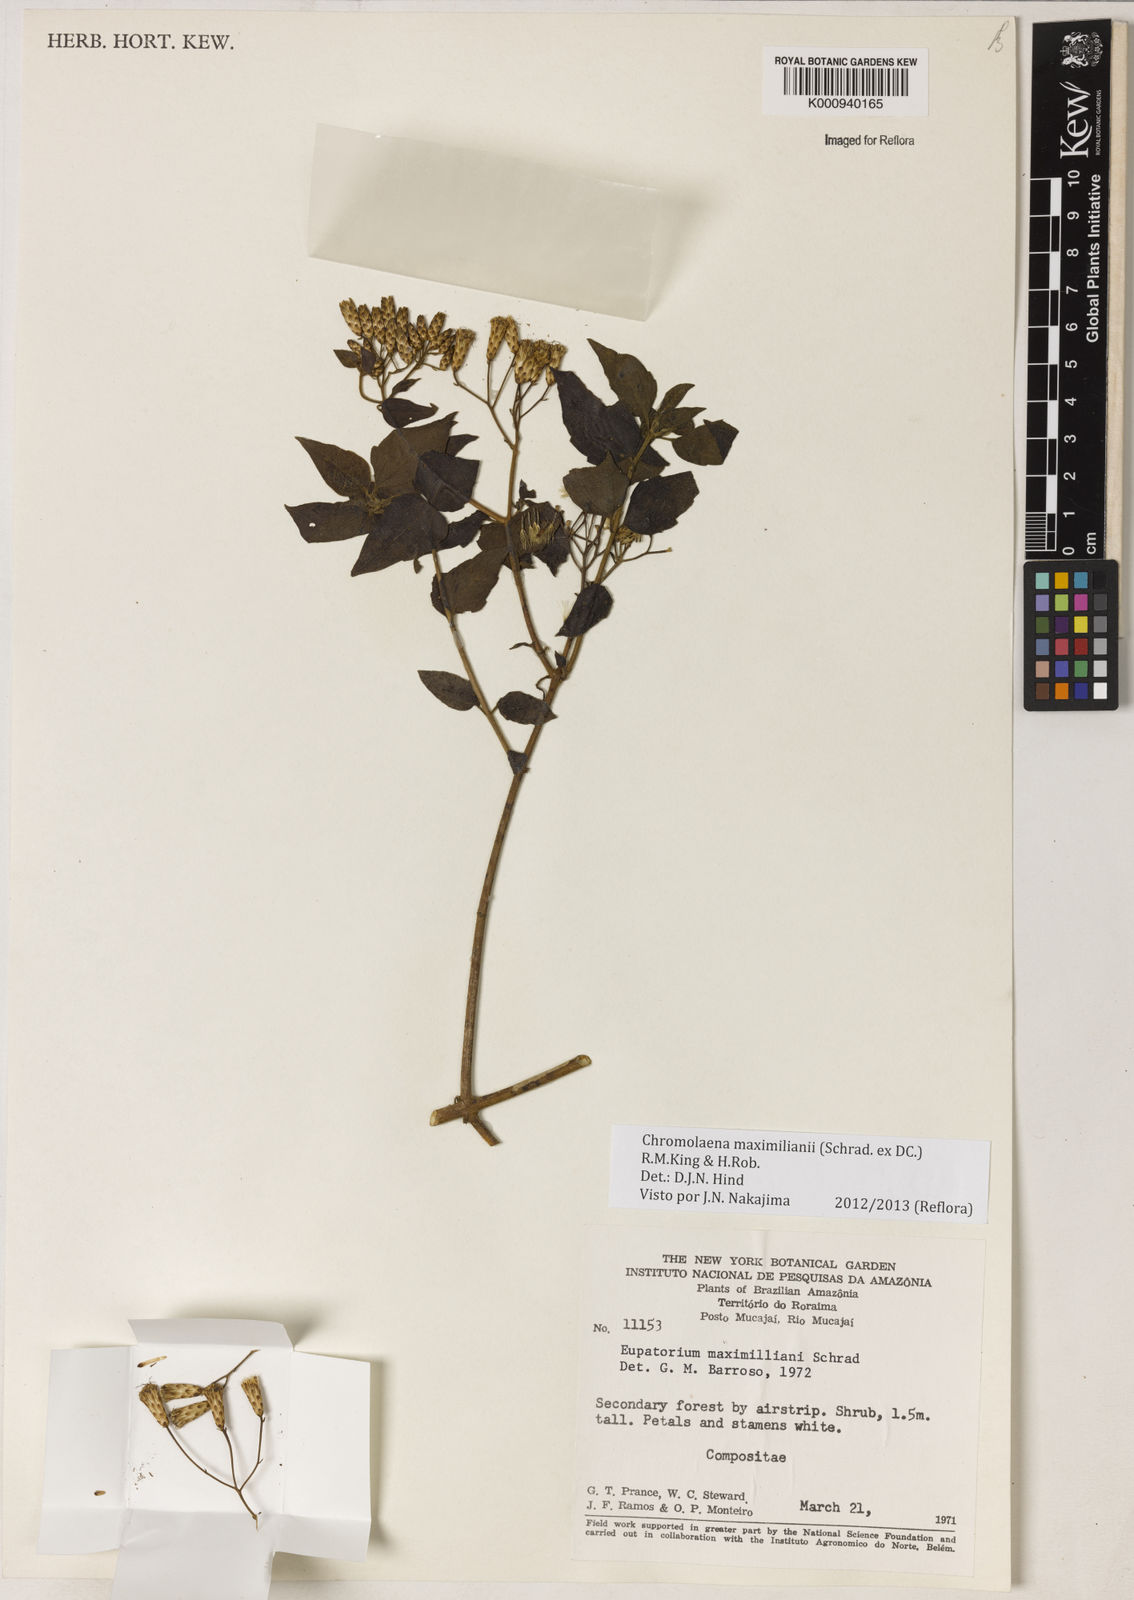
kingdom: Plantae
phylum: Tracheophyta
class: Magnoliopsida
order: Asterales
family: Asteraceae
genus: Chromolaena
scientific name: Chromolaena maximiliani
